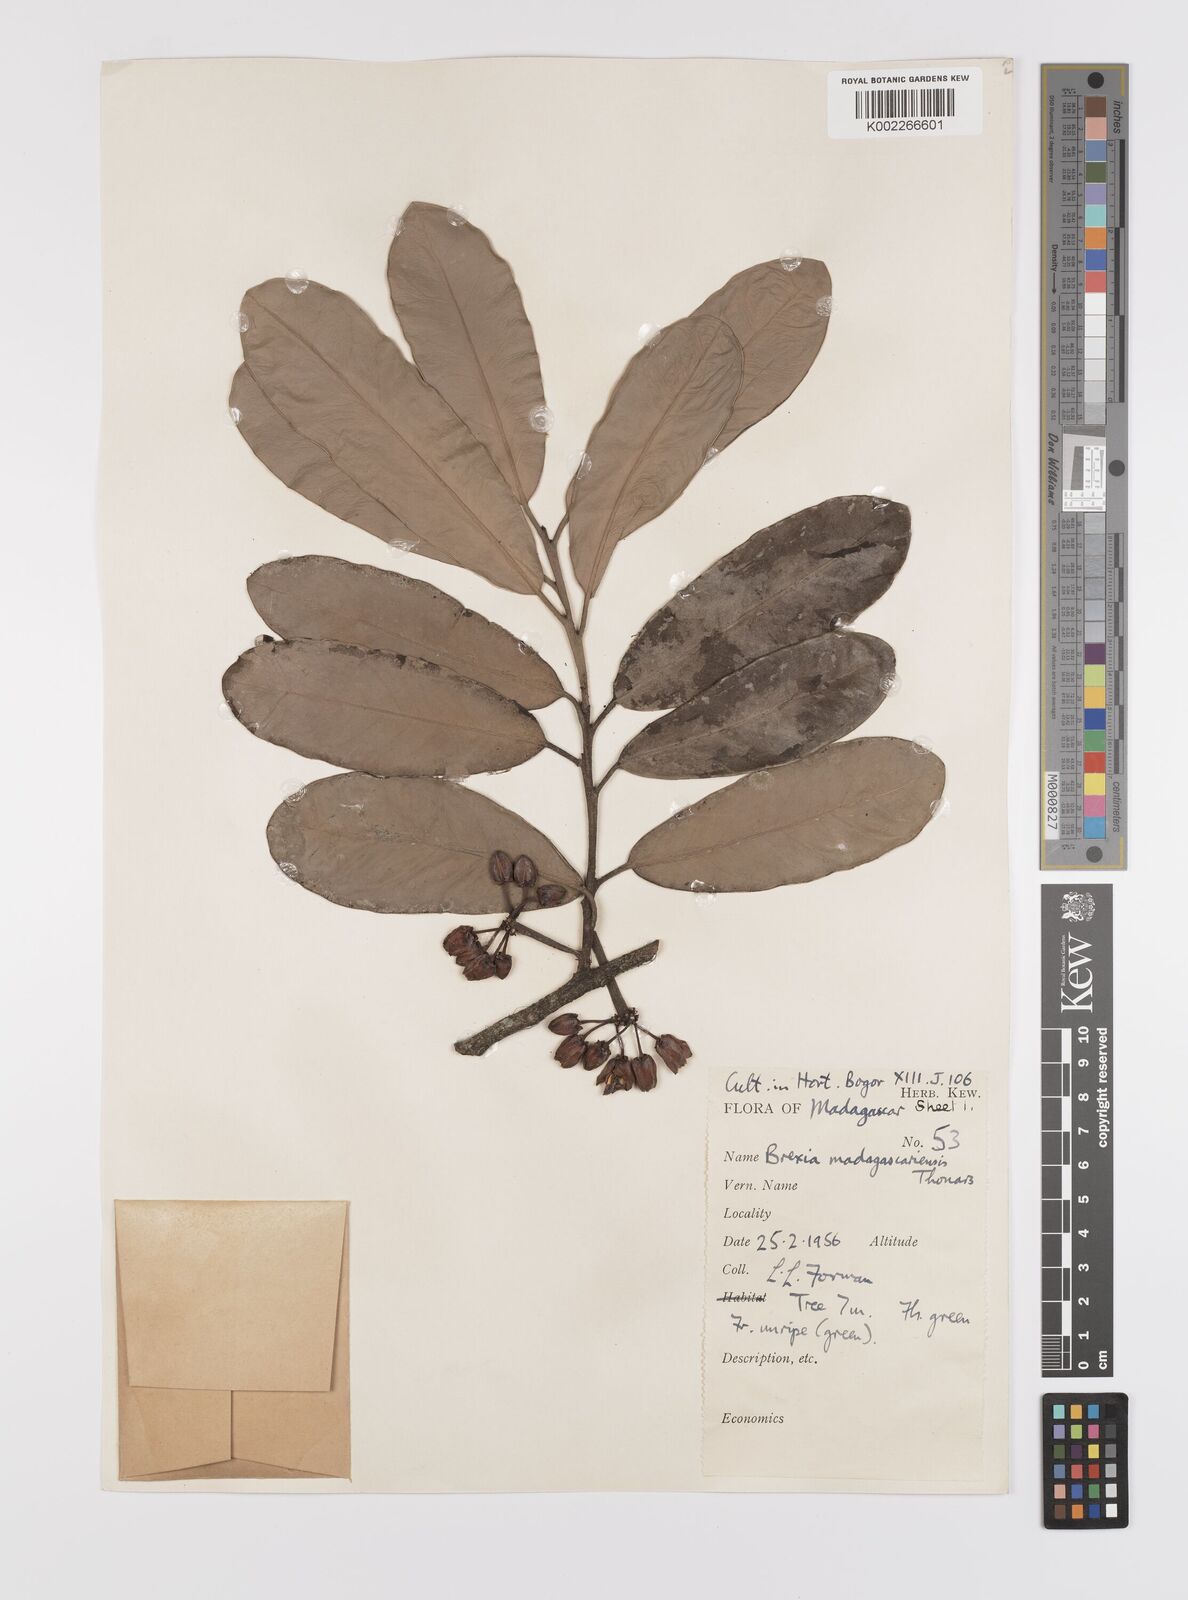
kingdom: Plantae
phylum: Tracheophyta
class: Magnoliopsida
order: Celastrales
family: Celastraceae
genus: Brexia
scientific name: Brexia madagascariensis
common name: Brexia
